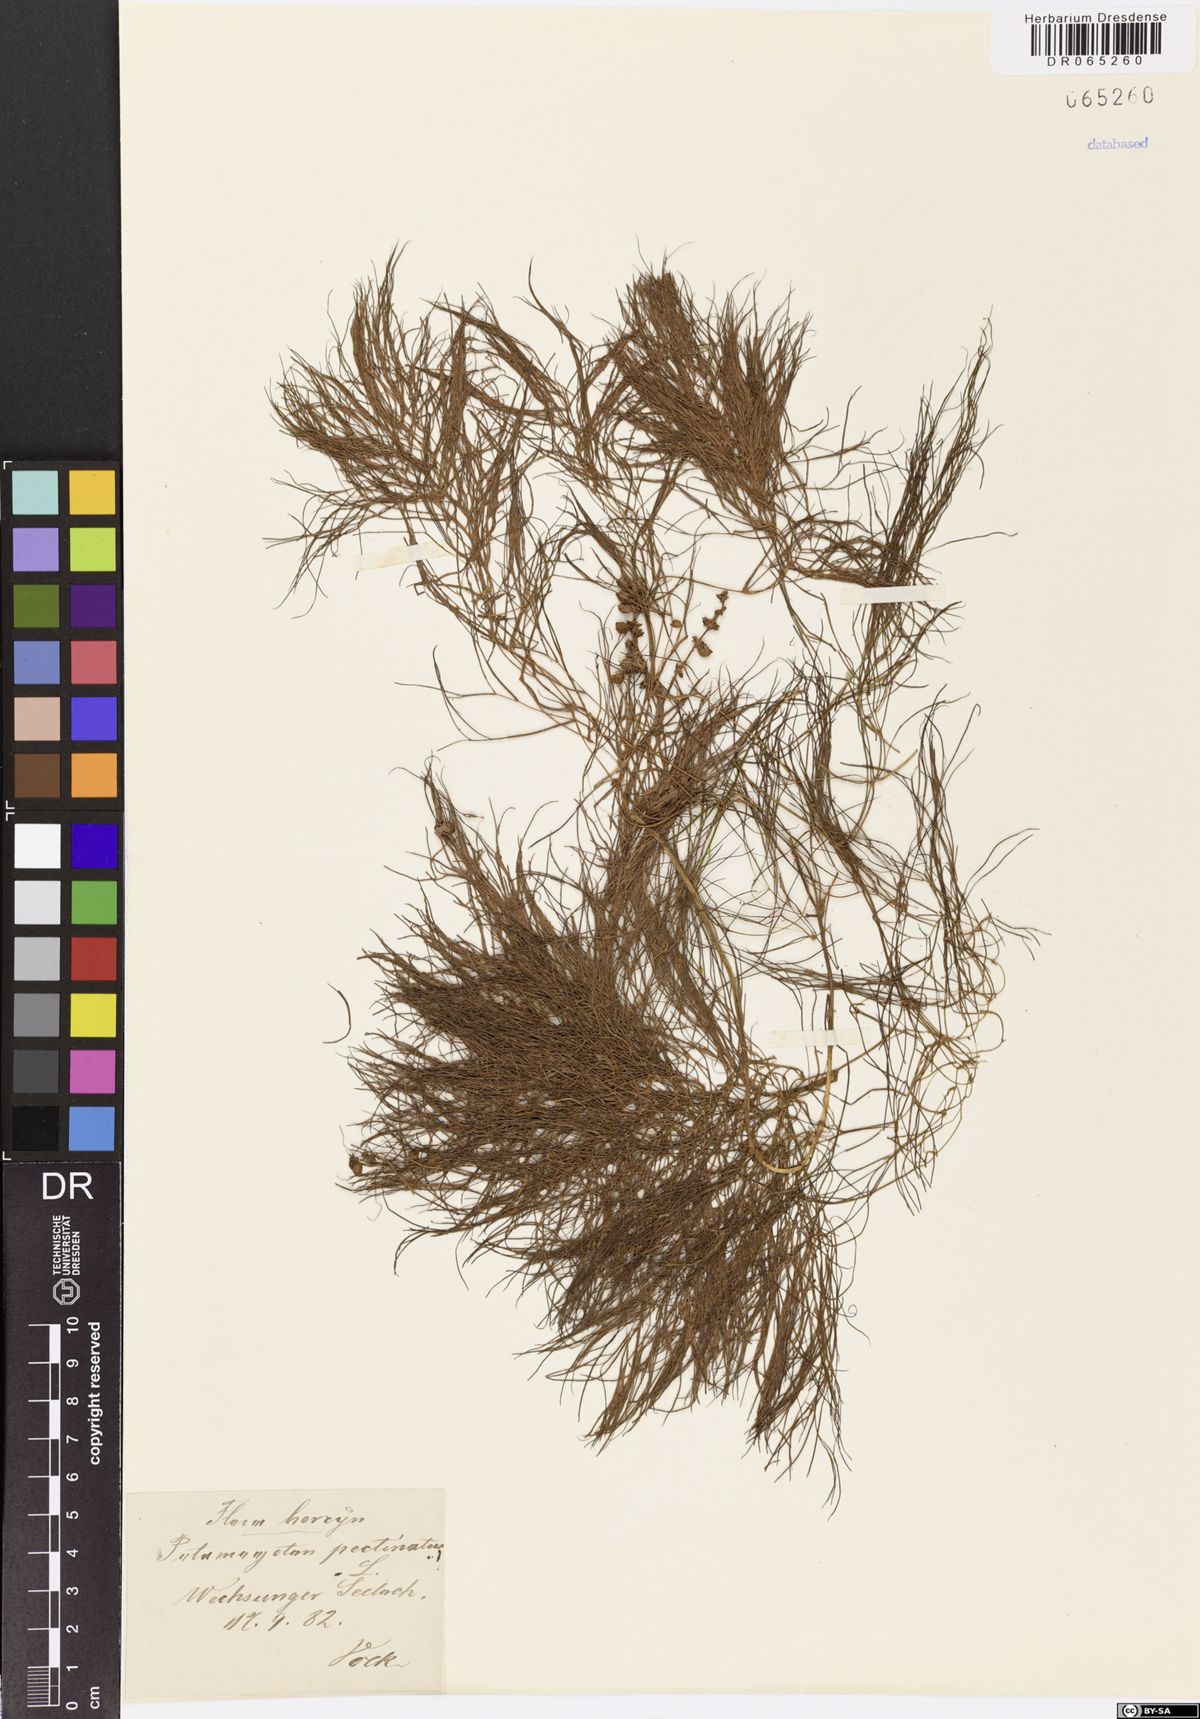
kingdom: Plantae
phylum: Tracheophyta
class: Liliopsida
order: Alismatales
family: Potamogetonaceae
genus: Stuckenia
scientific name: Stuckenia pectinata
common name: Sago pondweed
